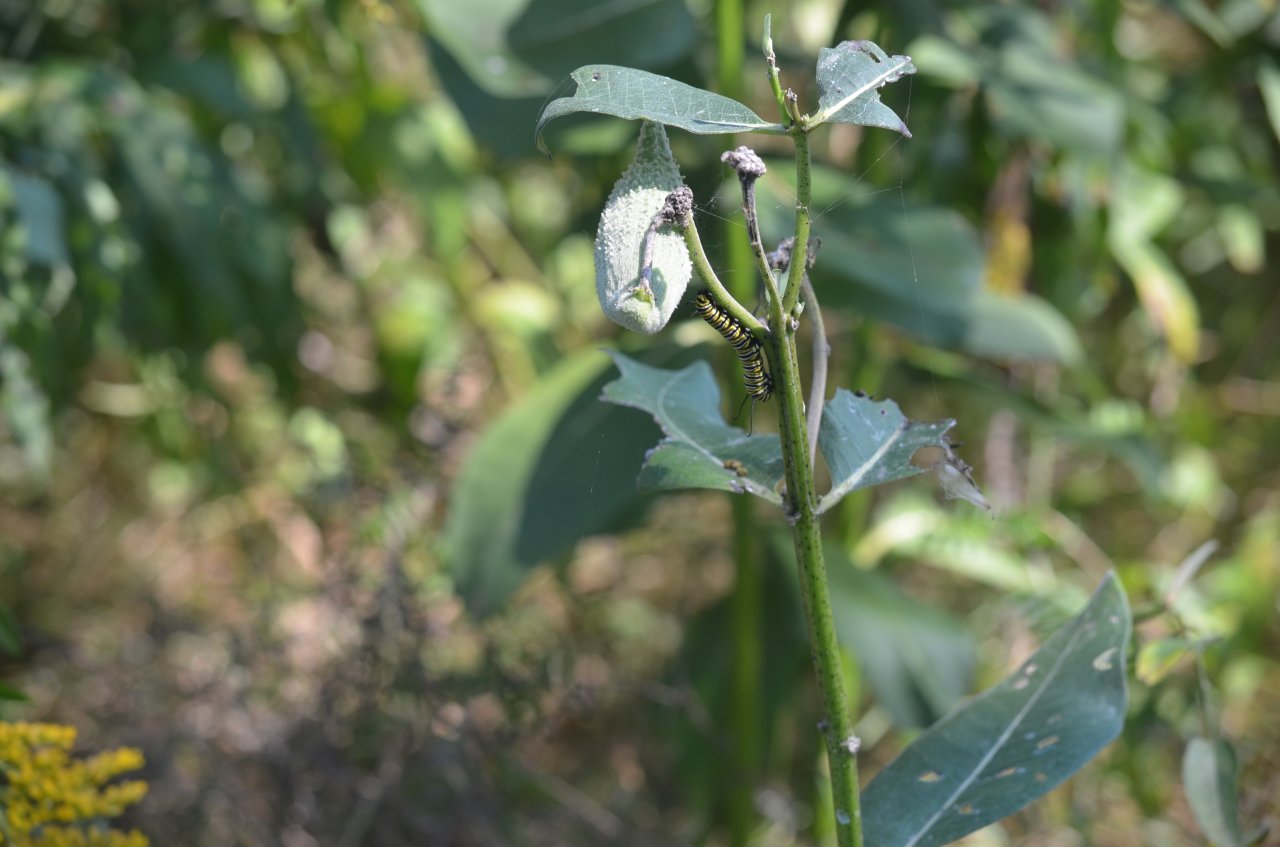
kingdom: Animalia
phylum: Arthropoda
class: Insecta
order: Lepidoptera
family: Nymphalidae
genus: Danaus
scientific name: Danaus plexippus
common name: Monarch
